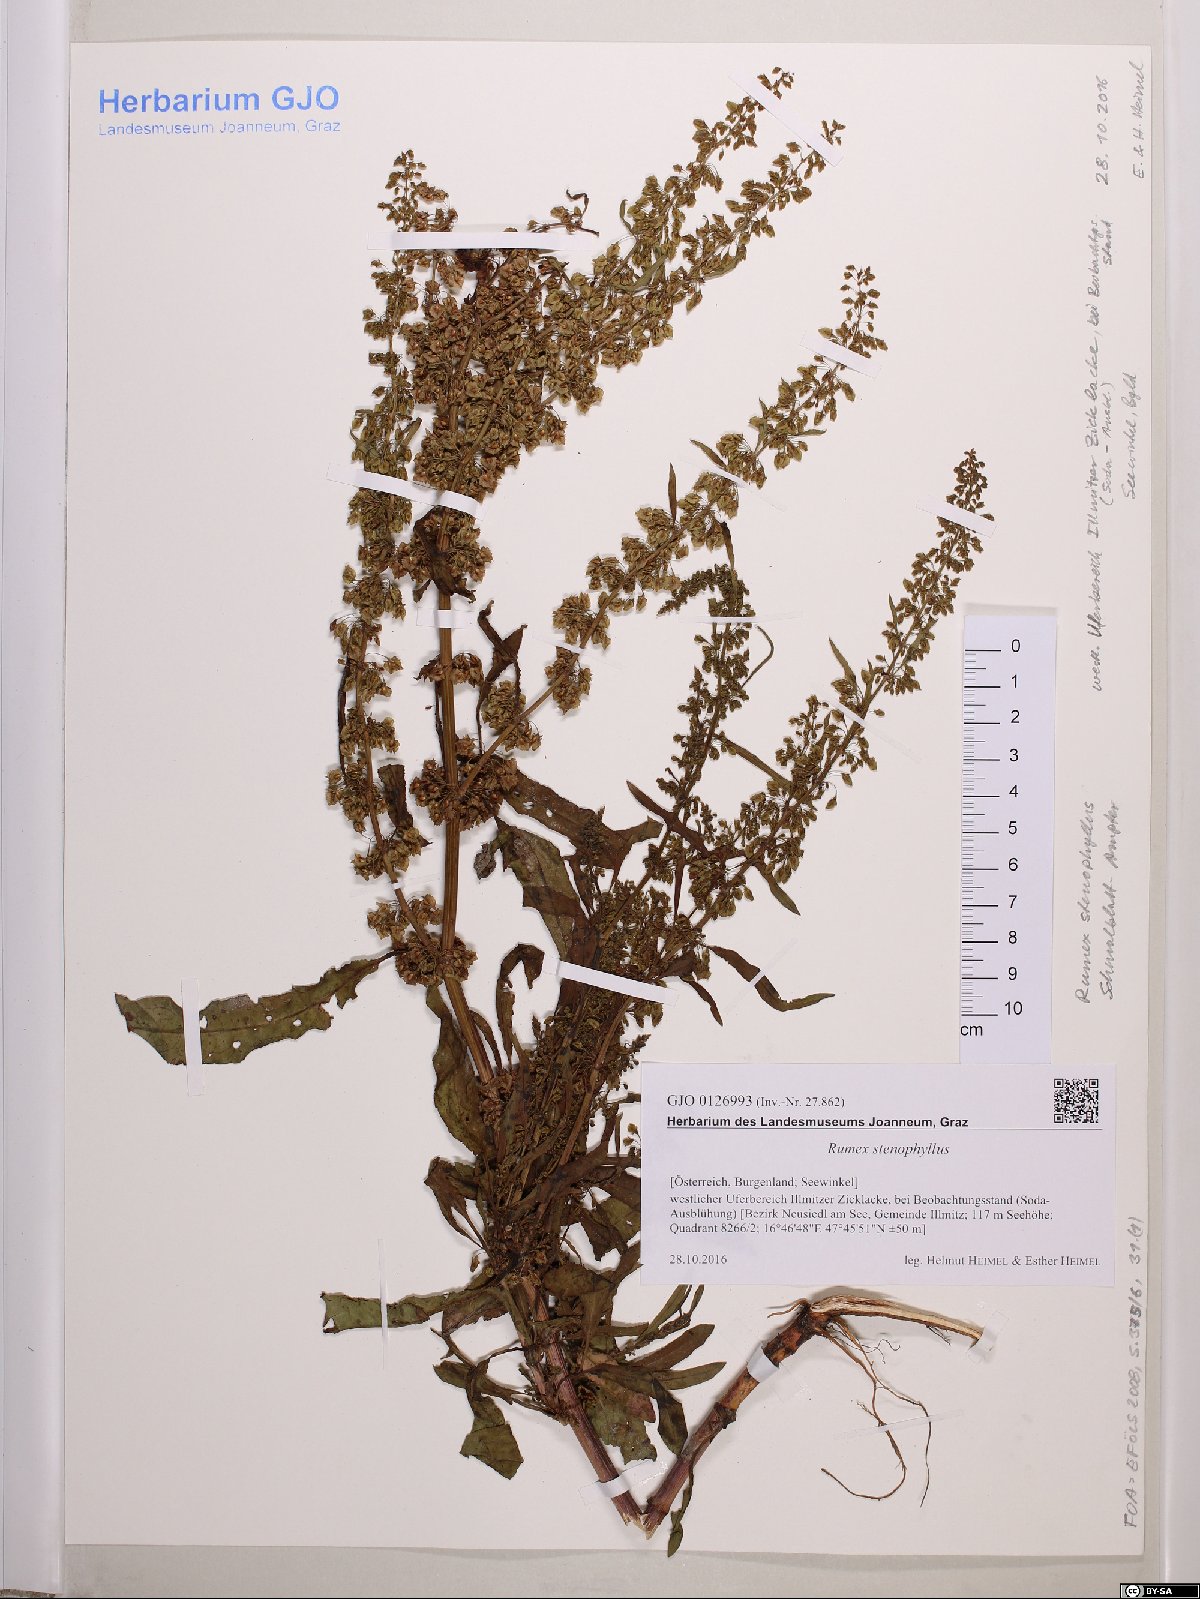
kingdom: Plantae
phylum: Tracheophyta
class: Magnoliopsida
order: Caryophyllales
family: Polygonaceae
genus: Rumex
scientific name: Rumex stenophyllus
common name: Narrowleaf dock
